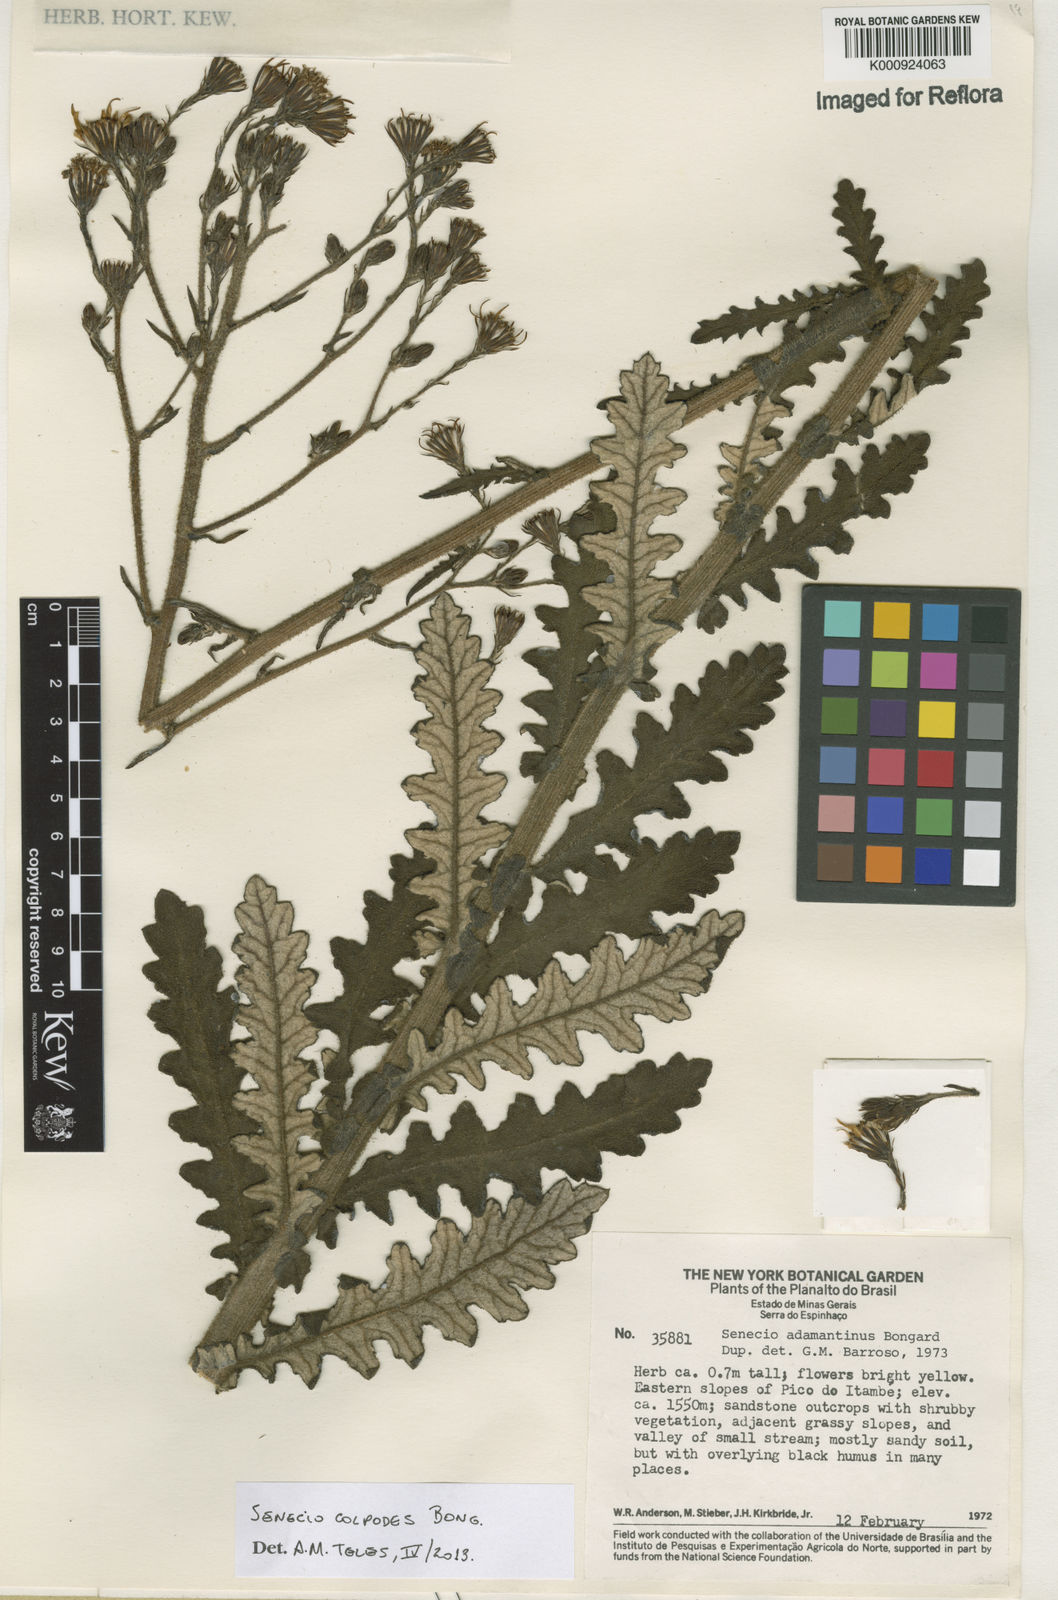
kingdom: Plantae
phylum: Tracheophyta
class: Magnoliopsida
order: Asterales
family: Asteraceae
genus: Senecio
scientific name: Senecio colpodes
